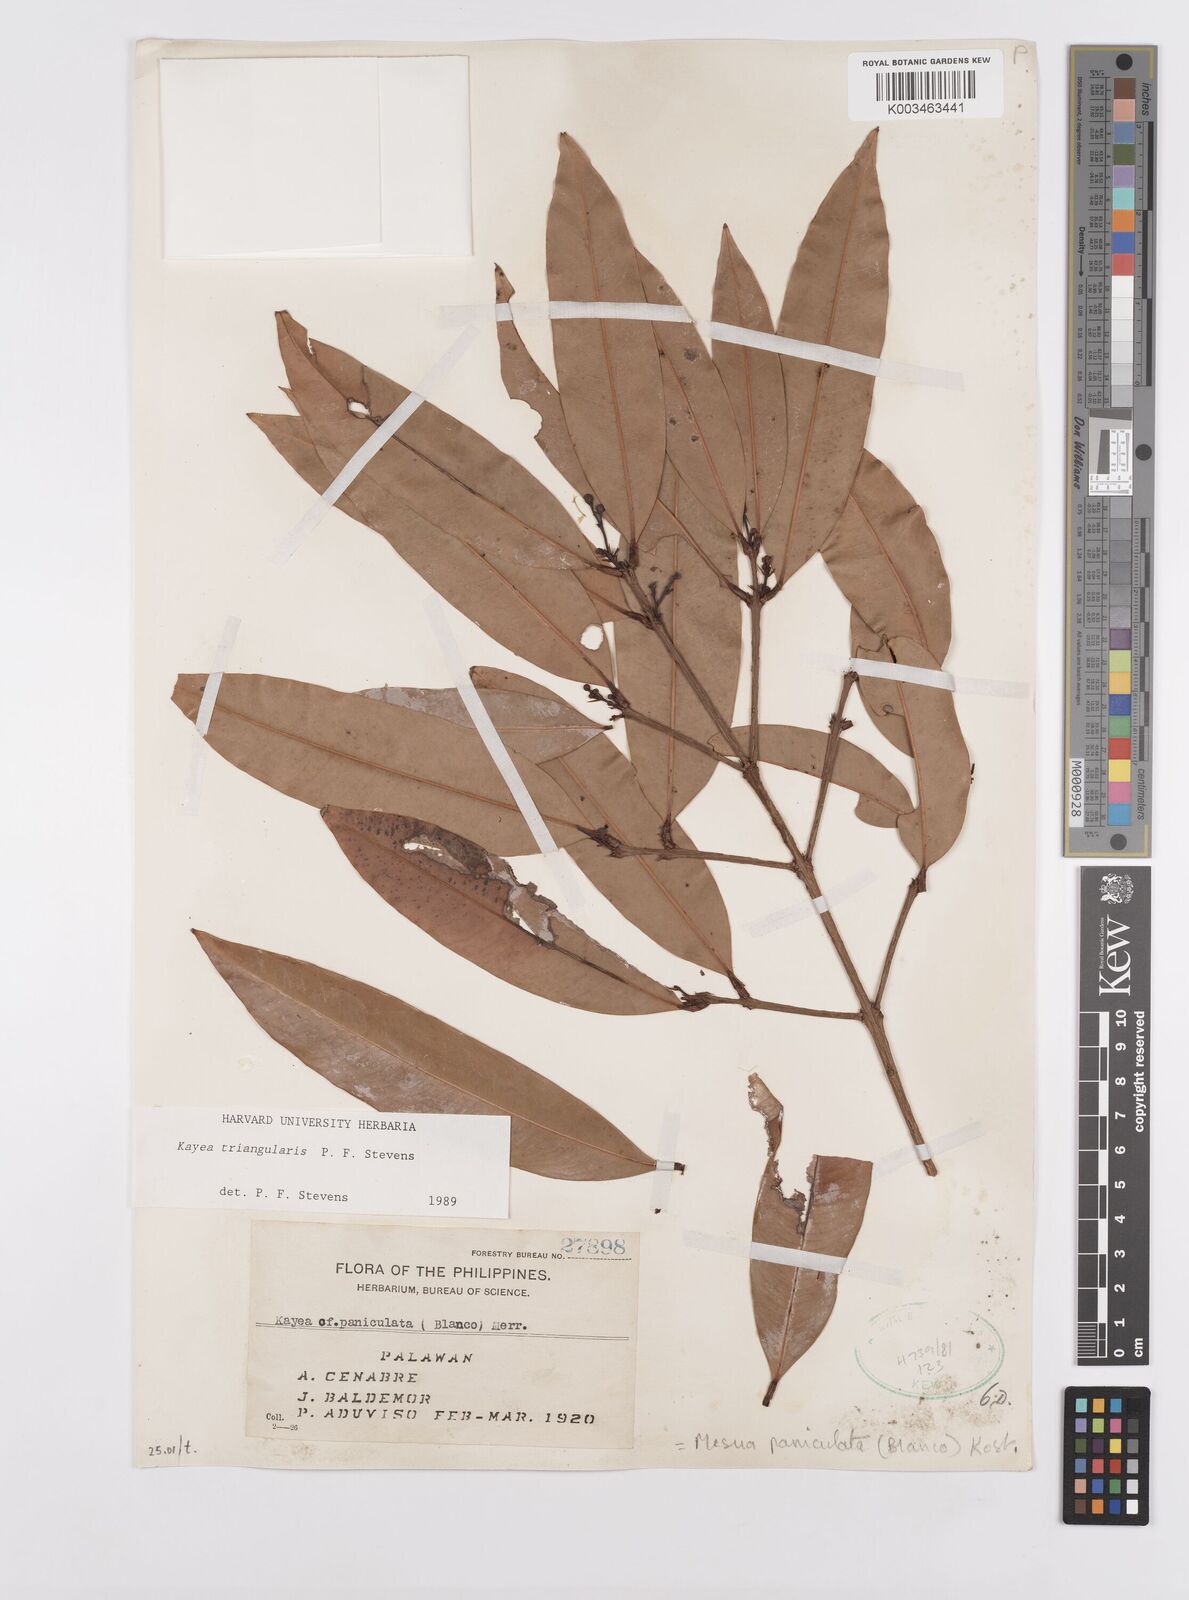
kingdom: Plantae
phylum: Tracheophyta
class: Magnoliopsida
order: Malpighiales
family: Calophyllaceae
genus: Kayea
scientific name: Kayea
